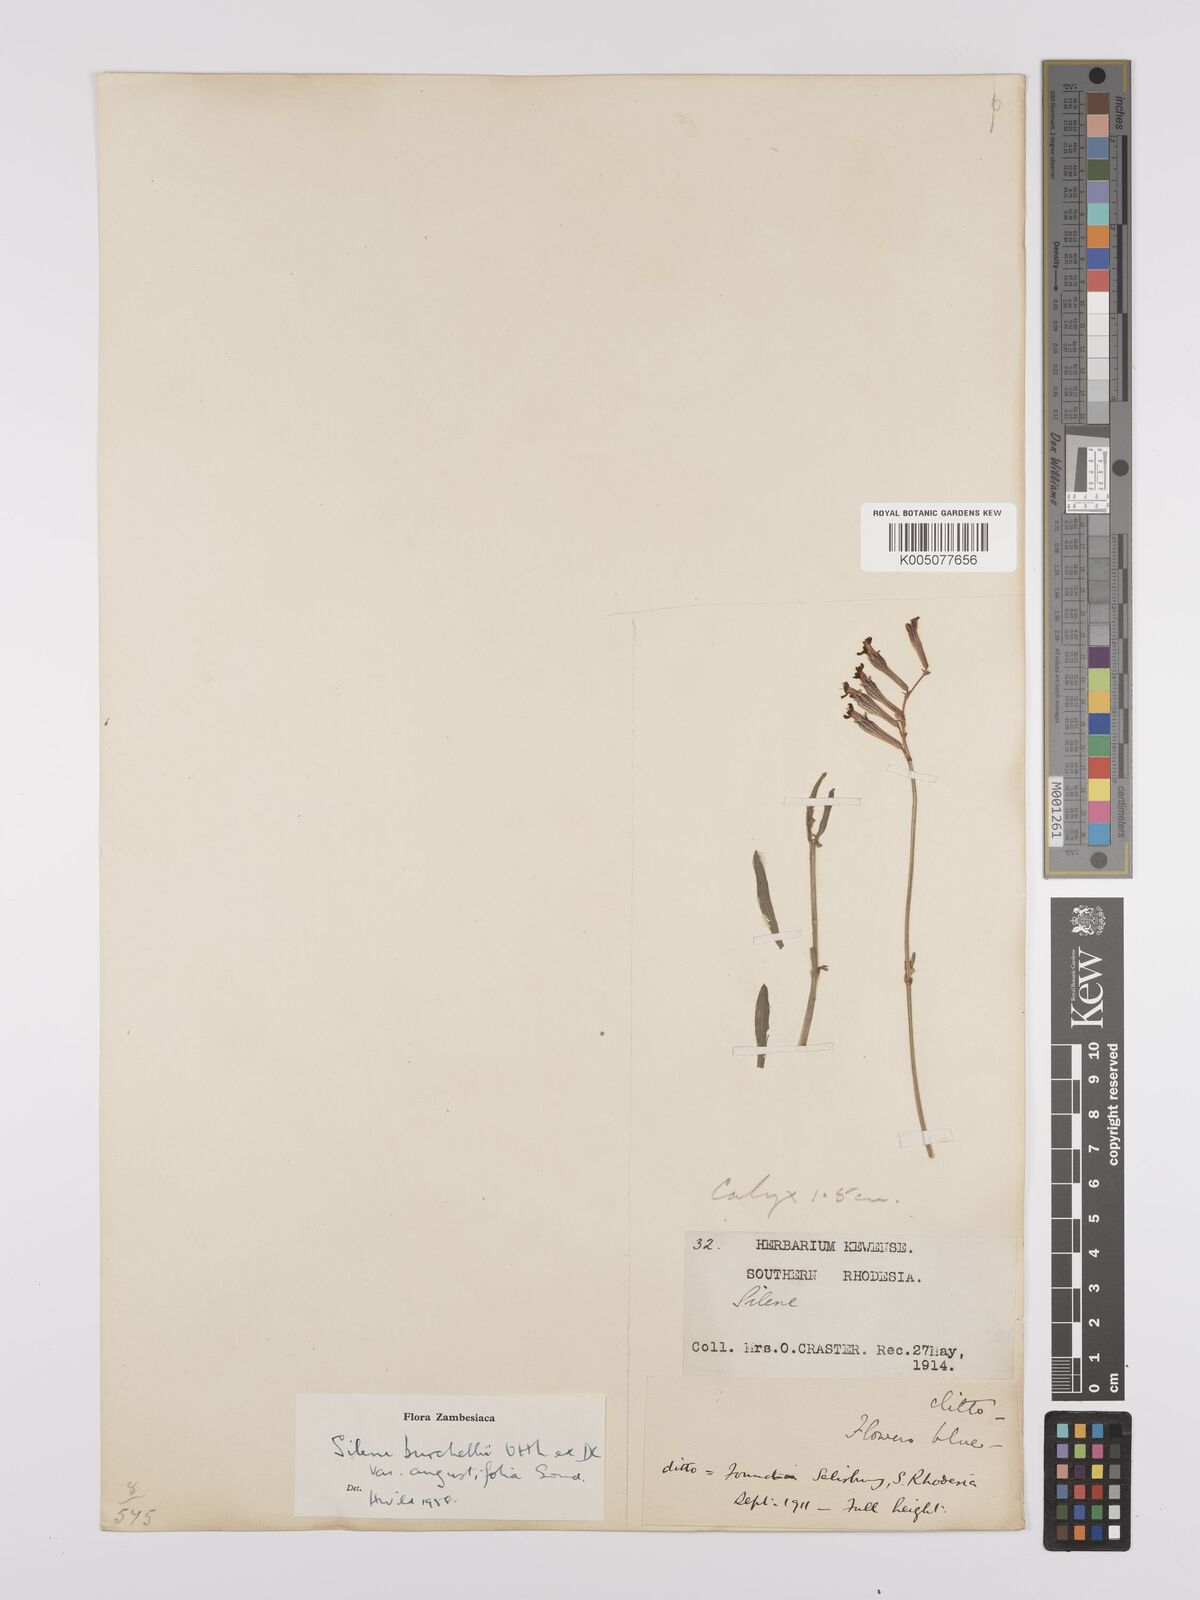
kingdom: Plantae
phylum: Tracheophyta
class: Magnoliopsida
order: Caryophyllales
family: Caryophyllaceae
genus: Silene
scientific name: Silene burchellii
